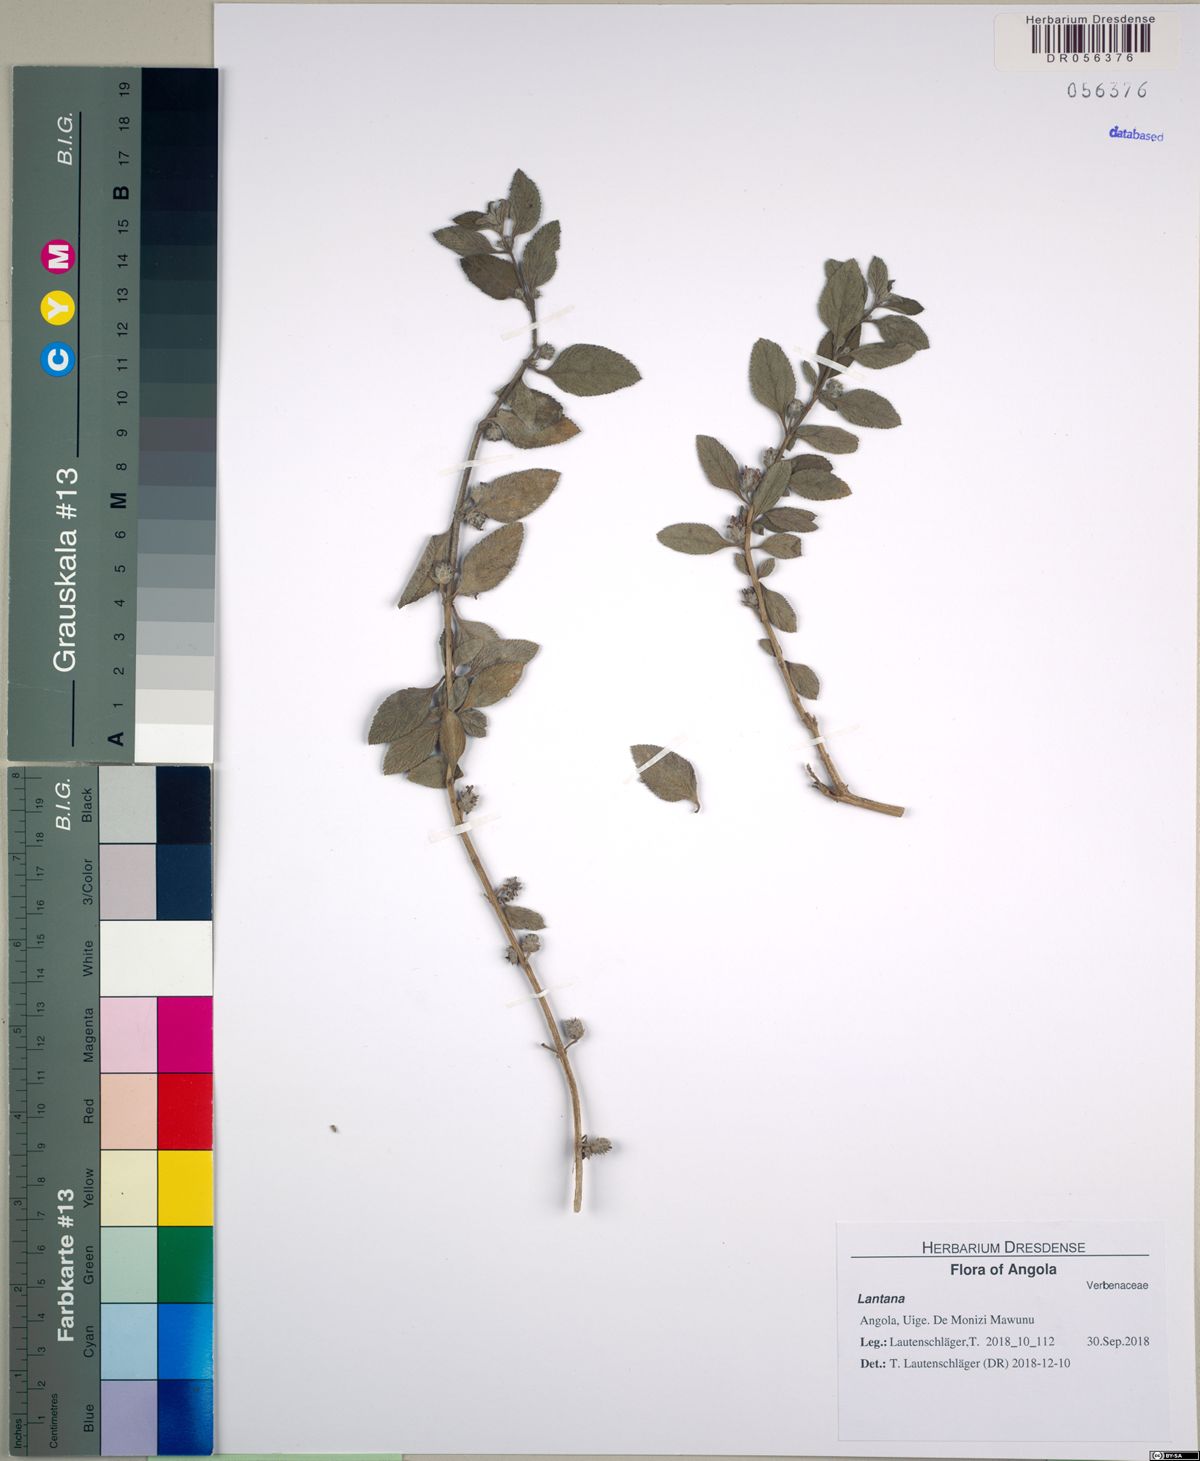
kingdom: Plantae
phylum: Tracheophyta
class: Magnoliopsida
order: Lamiales
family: Verbenaceae
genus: Lantana
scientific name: Lantana angolensis
